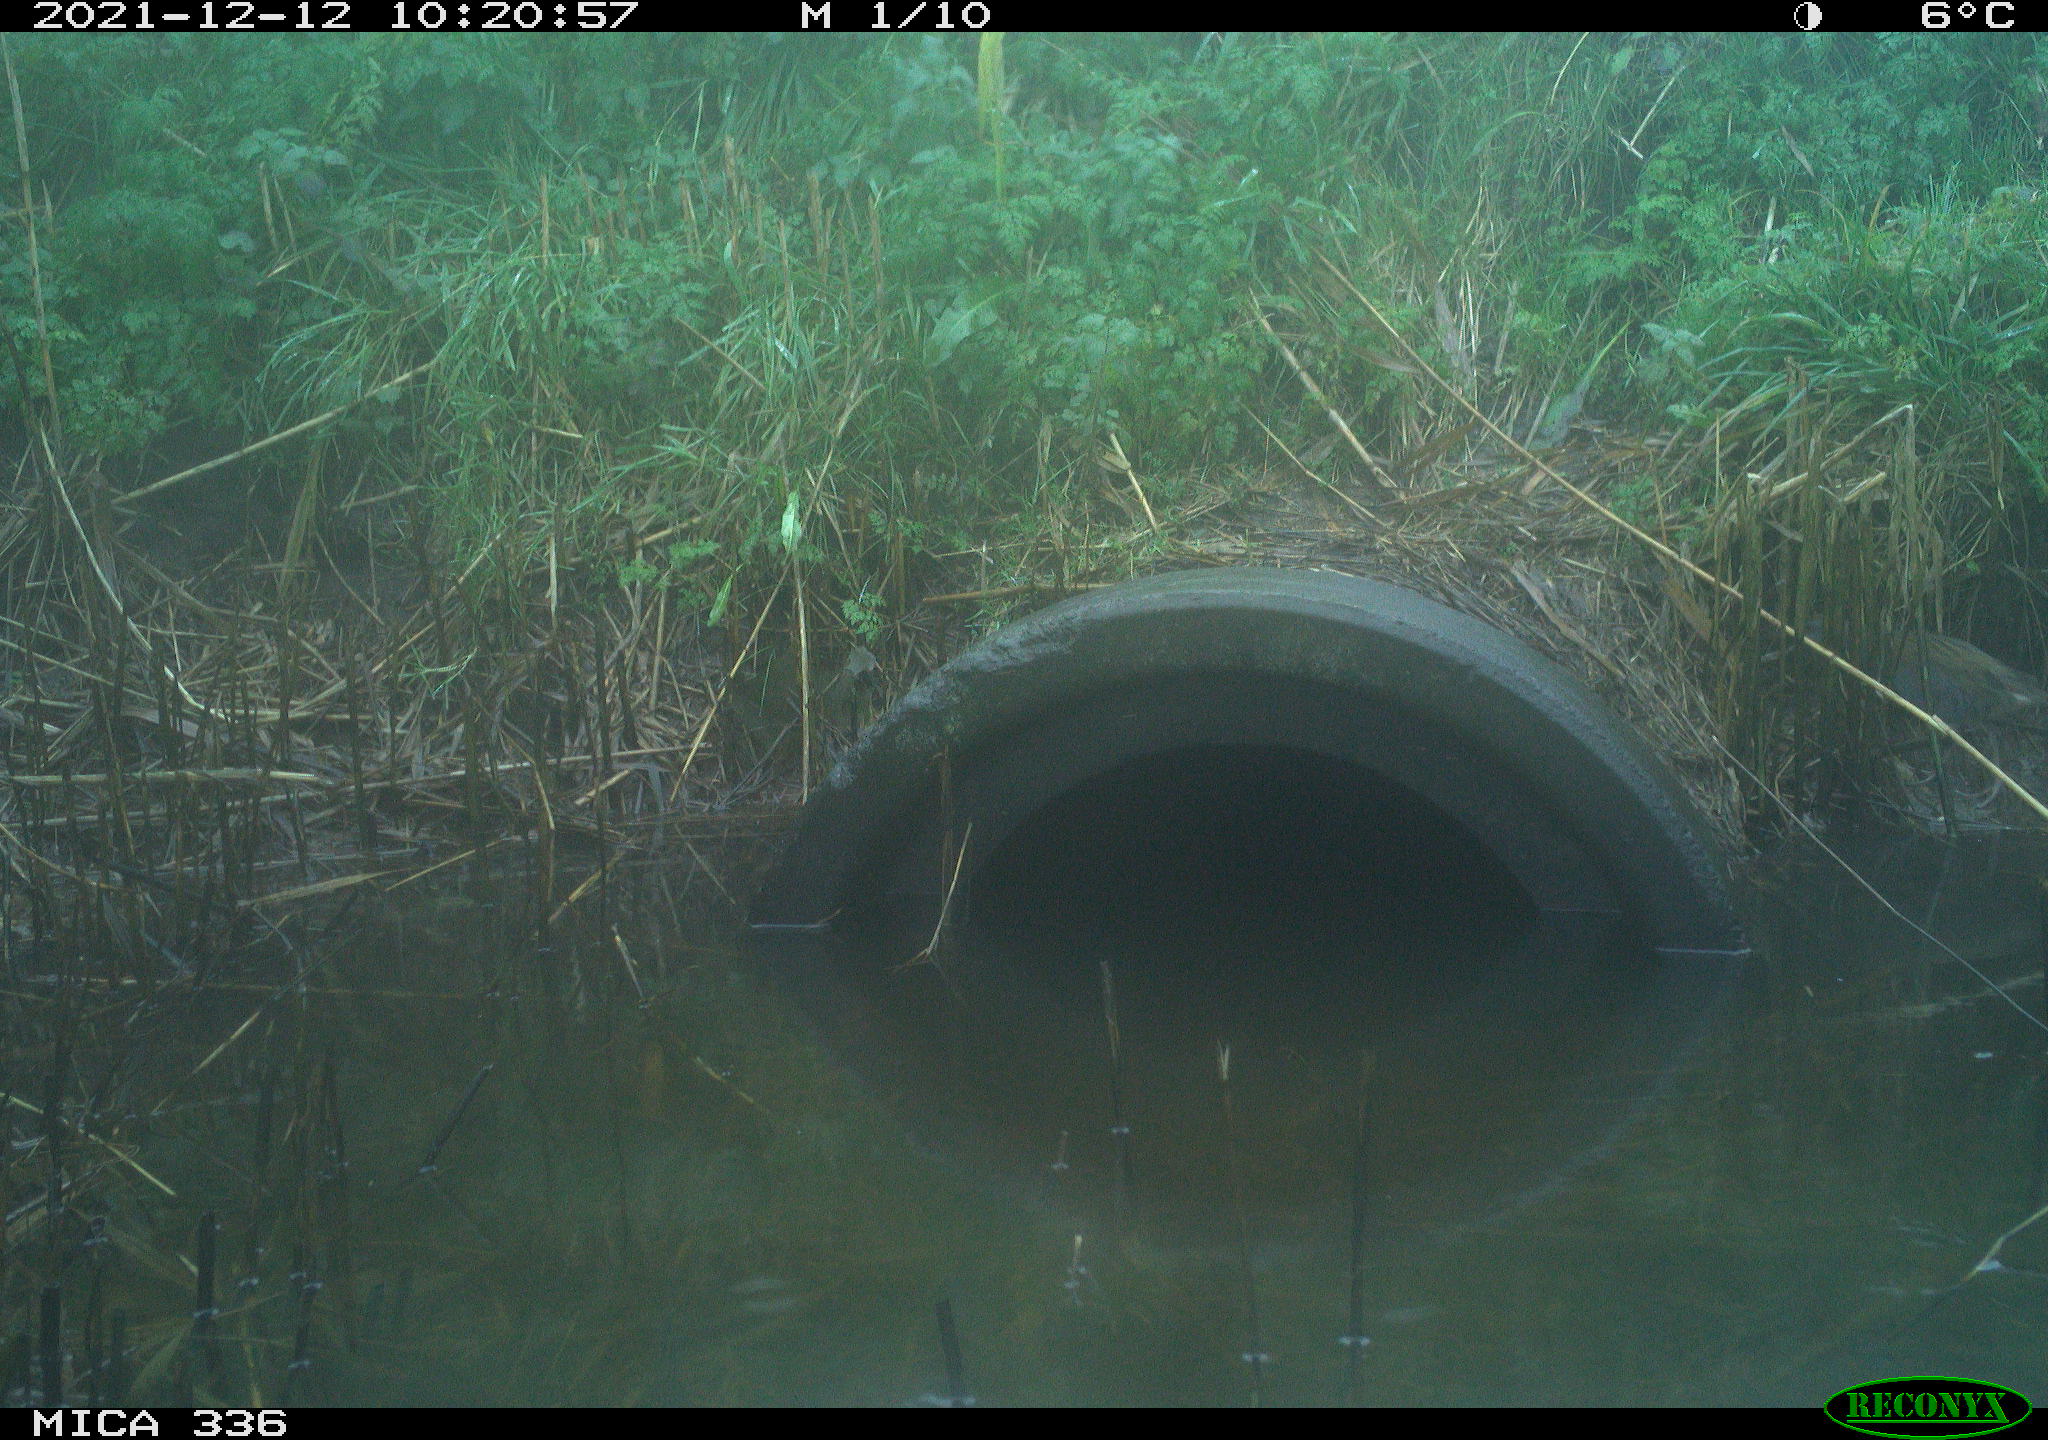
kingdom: Animalia
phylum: Chordata
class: Aves
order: Gruiformes
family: Rallidae
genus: Gallinula
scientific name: Gallinula chloropus
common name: Common moorhen
